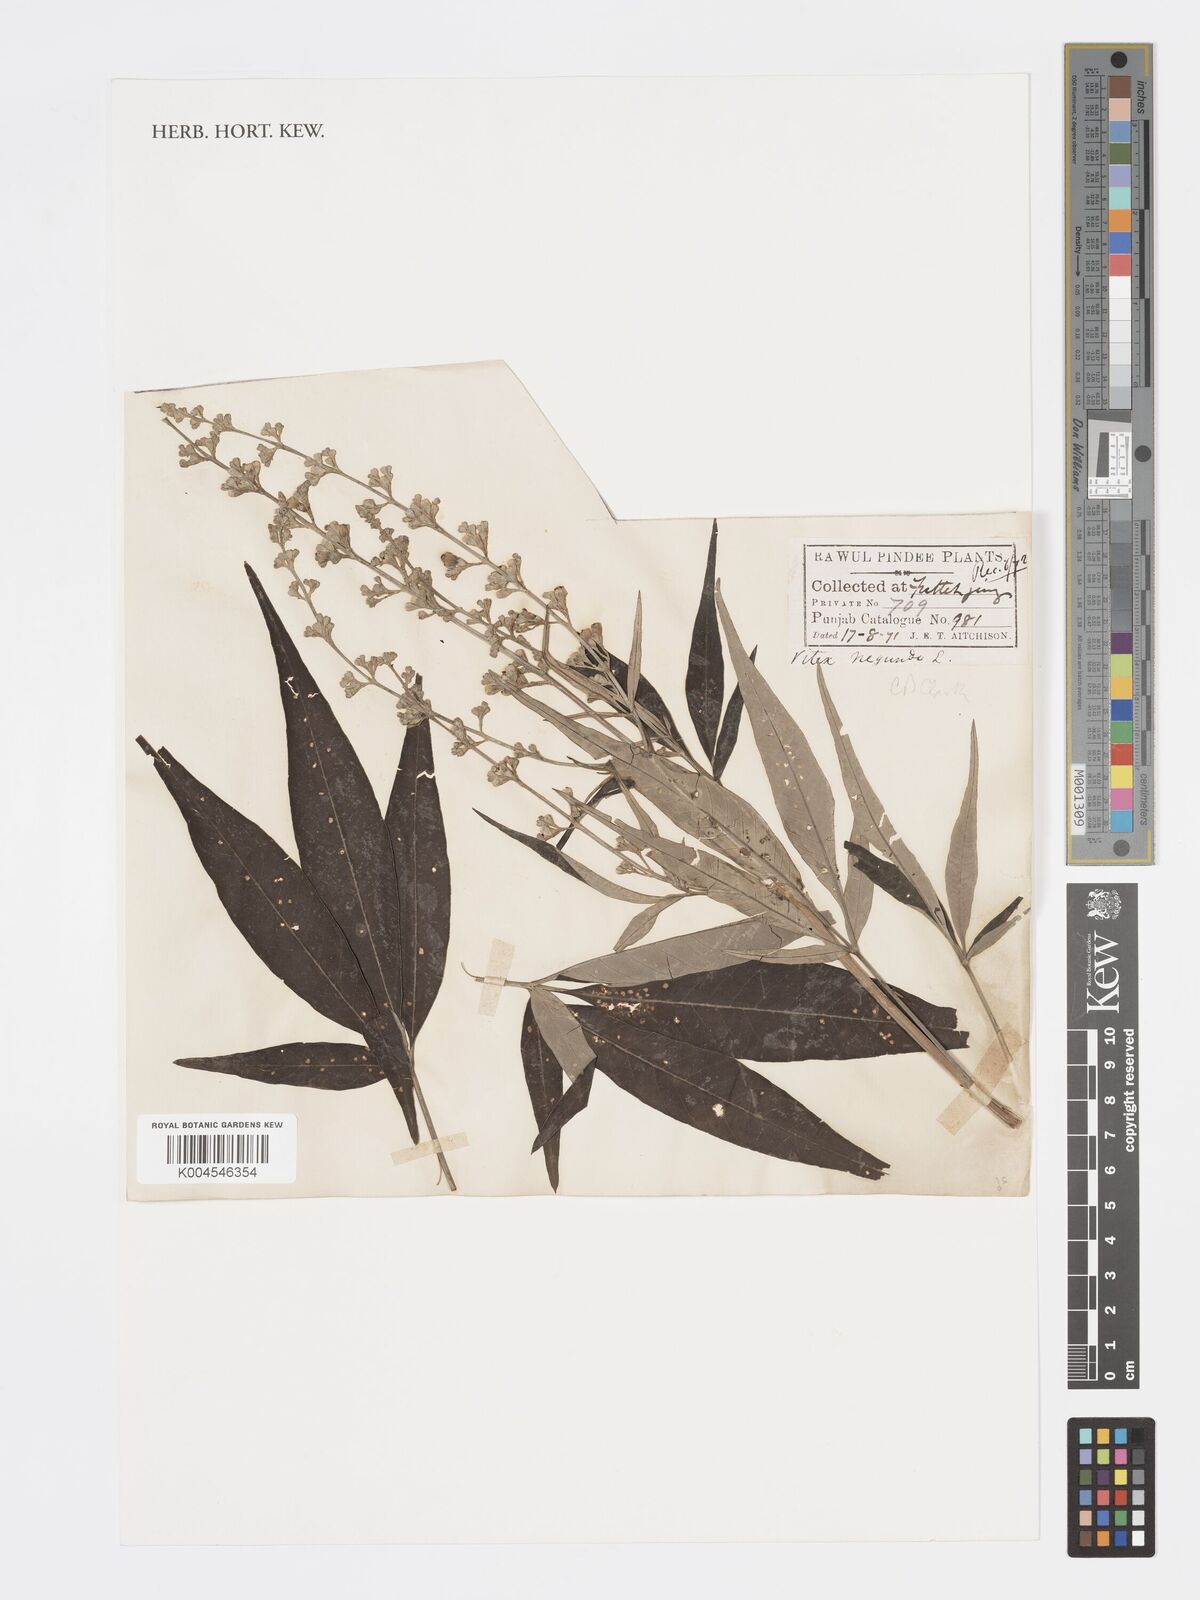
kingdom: Plantae
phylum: Tracheophyta
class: Magnoliopsida
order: Lamiales
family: Lamiaceae
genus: Vitex
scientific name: Vitex negundo
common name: Chinese chastetree
